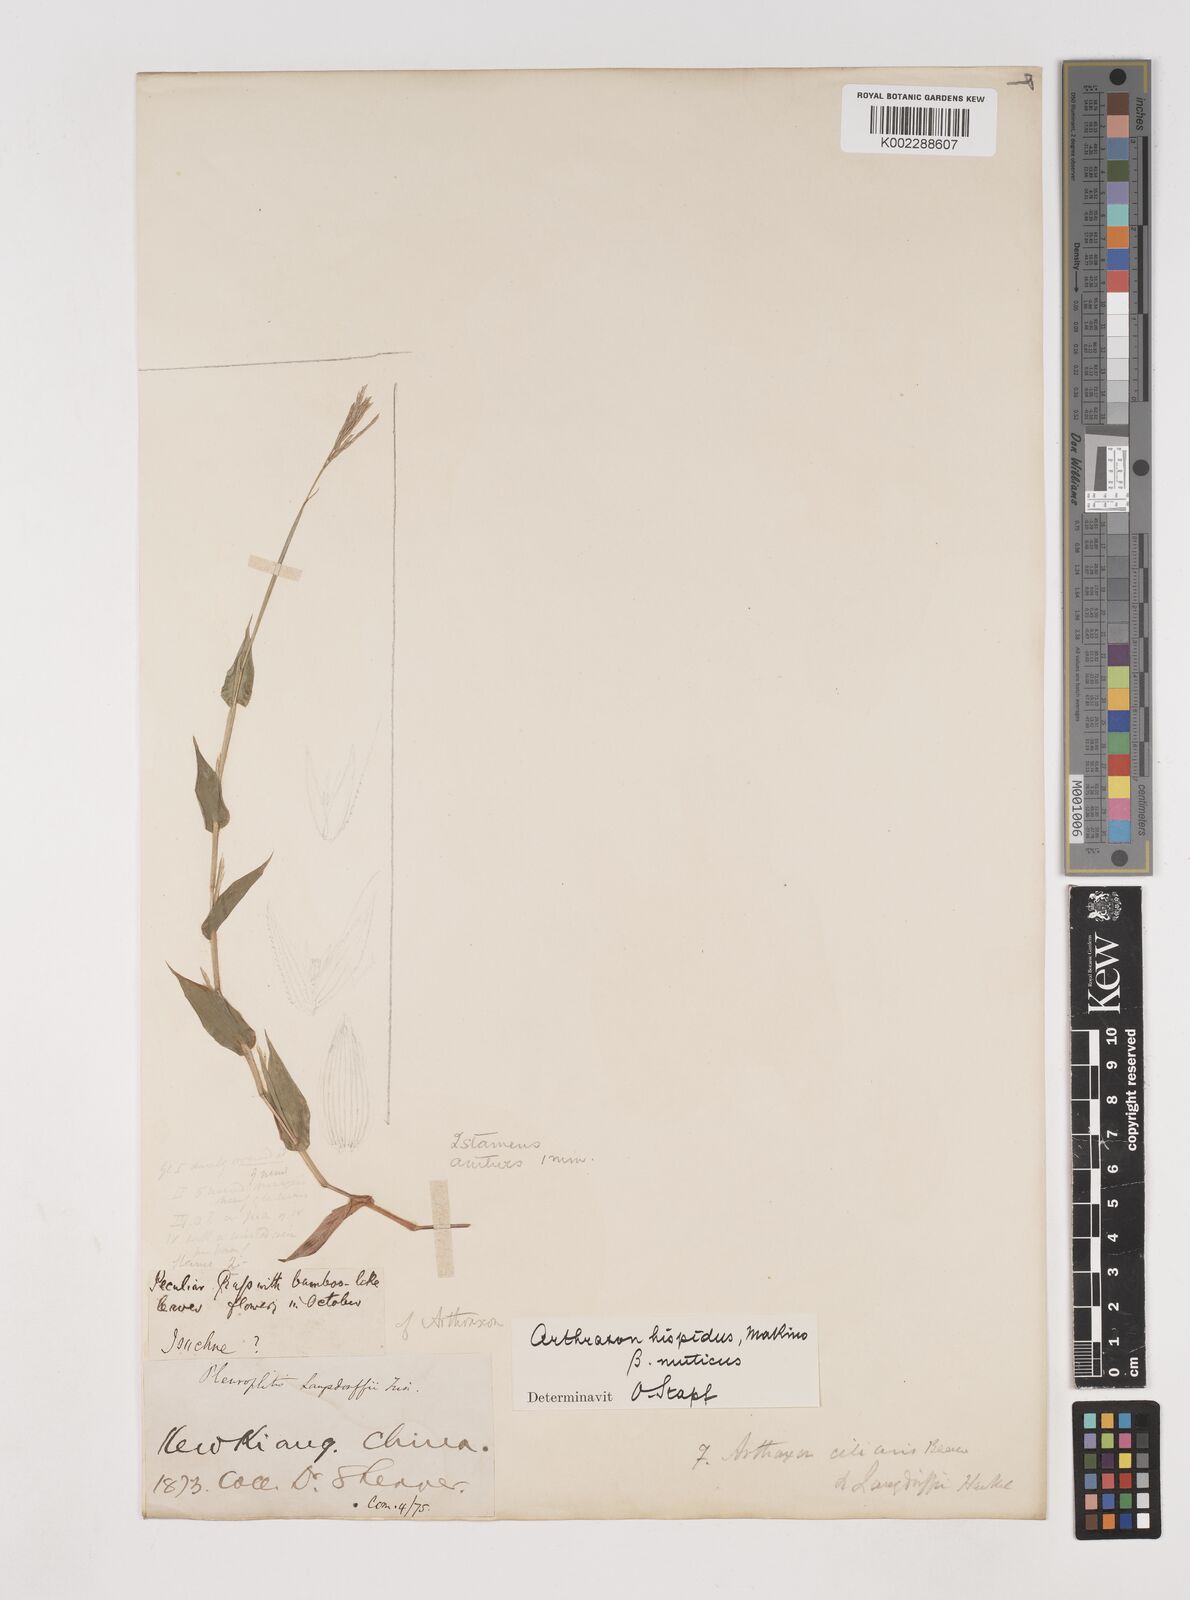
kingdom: Plantae
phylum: Tracheophyta
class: Liliopsida
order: Poales
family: Poaceae
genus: Arthraxon
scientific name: Arthraxon hispidus
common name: Small carpgrass
